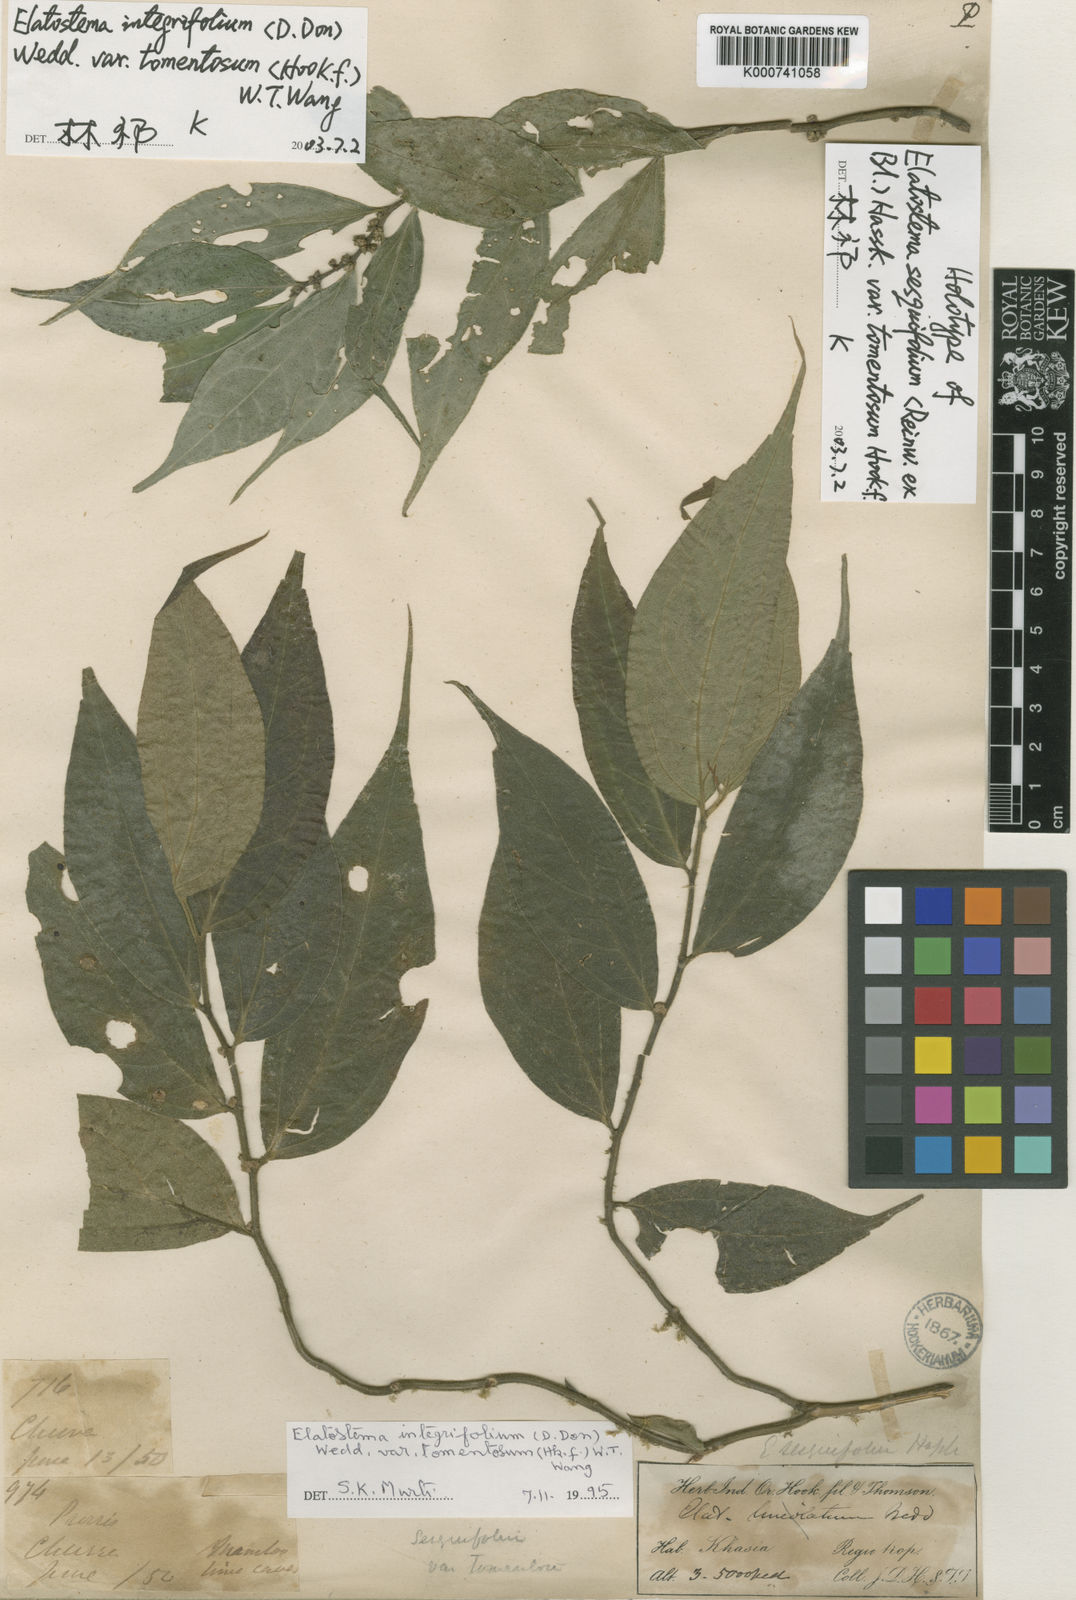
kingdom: Plantae
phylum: Tracheophyta
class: Magnoliopsida
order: Rosales
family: Urticaceae
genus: Elatostema
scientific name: Elatostema integrifolium
